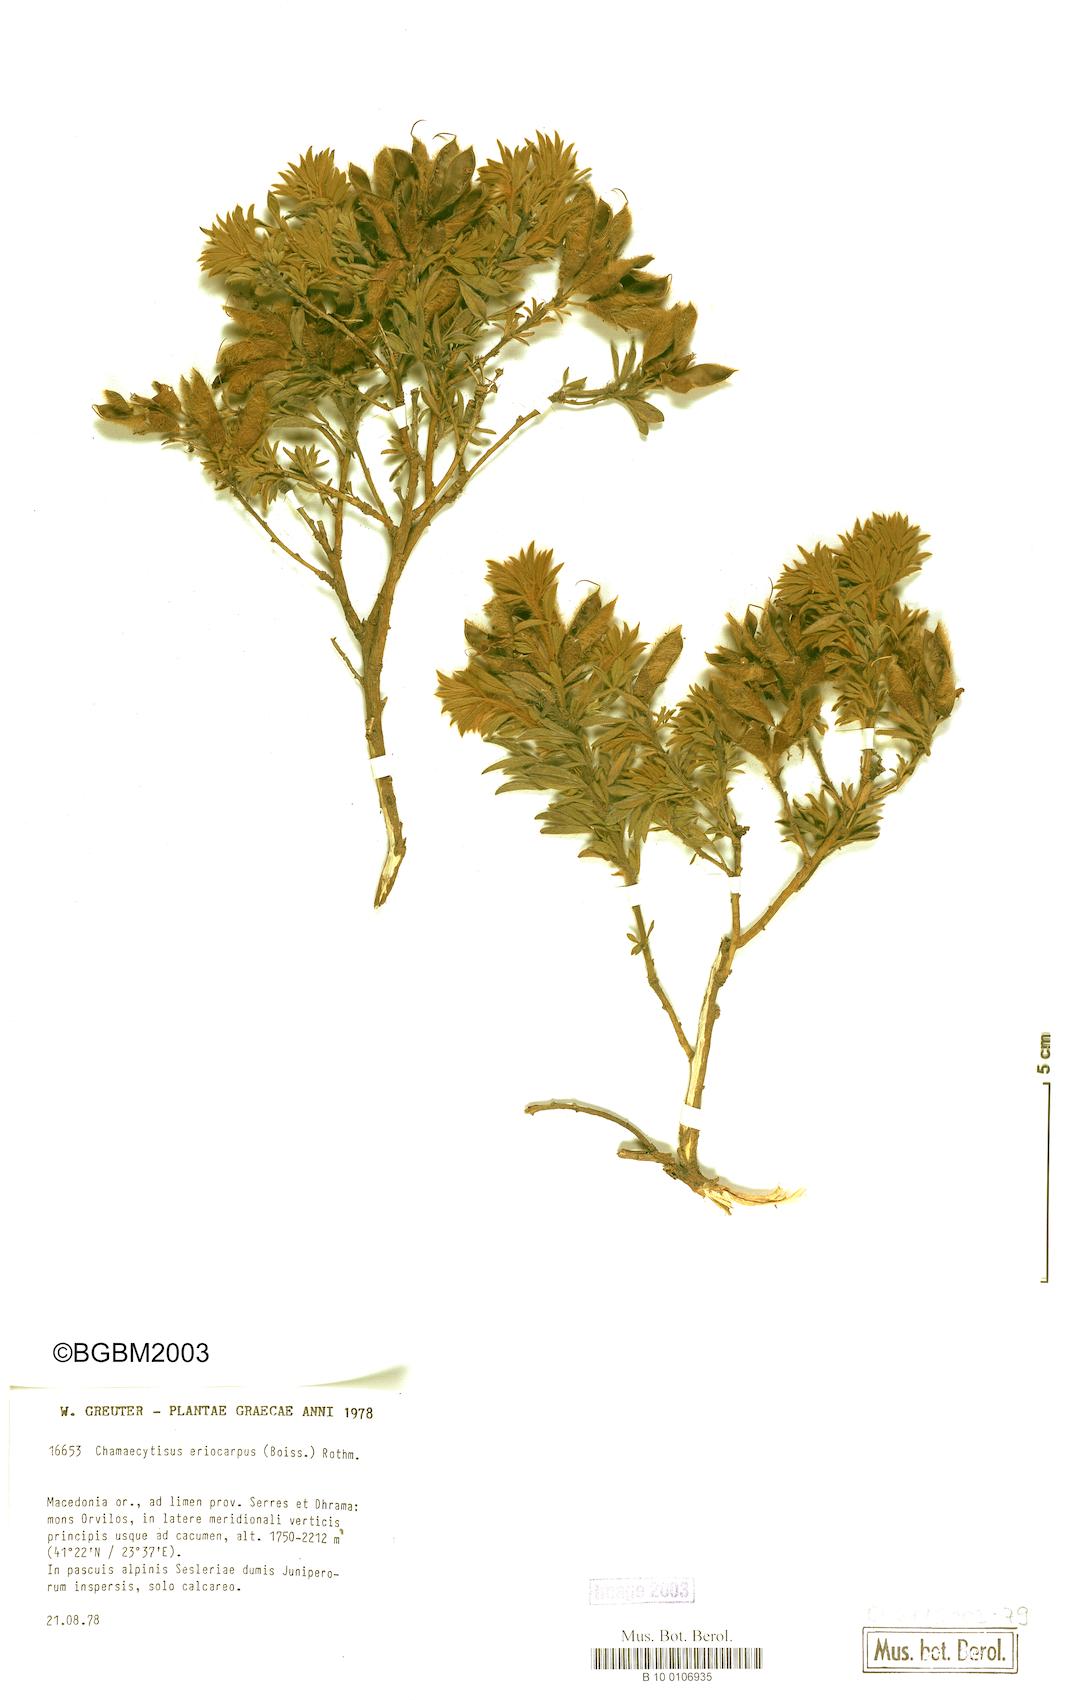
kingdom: Plantae
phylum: Tracheophyta
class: Magnoliopsida
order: Fabales
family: Fabaceae
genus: Chamaecytisus
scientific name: Chamaecytisus eriocarpus
